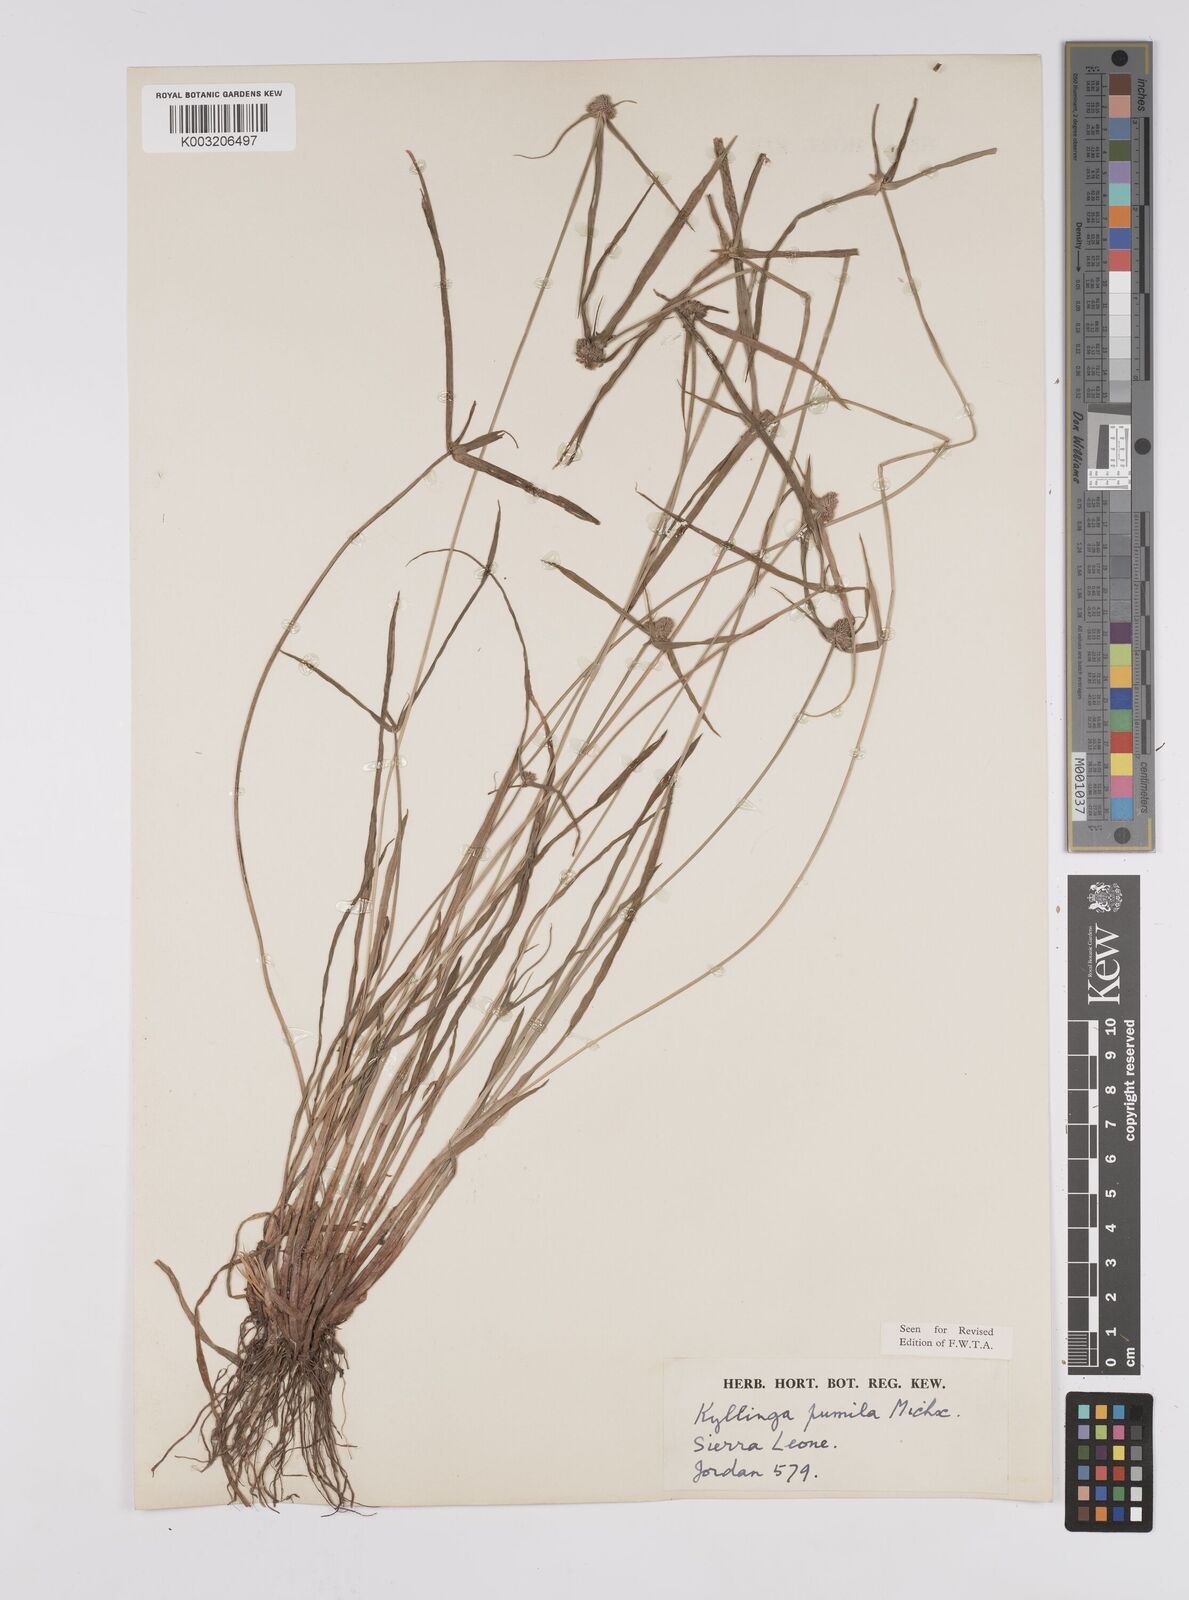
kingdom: Plantae
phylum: Tracheophyta
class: Liliopsida
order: Poales
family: Cyperaceae
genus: Cyperus
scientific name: Cyperus
